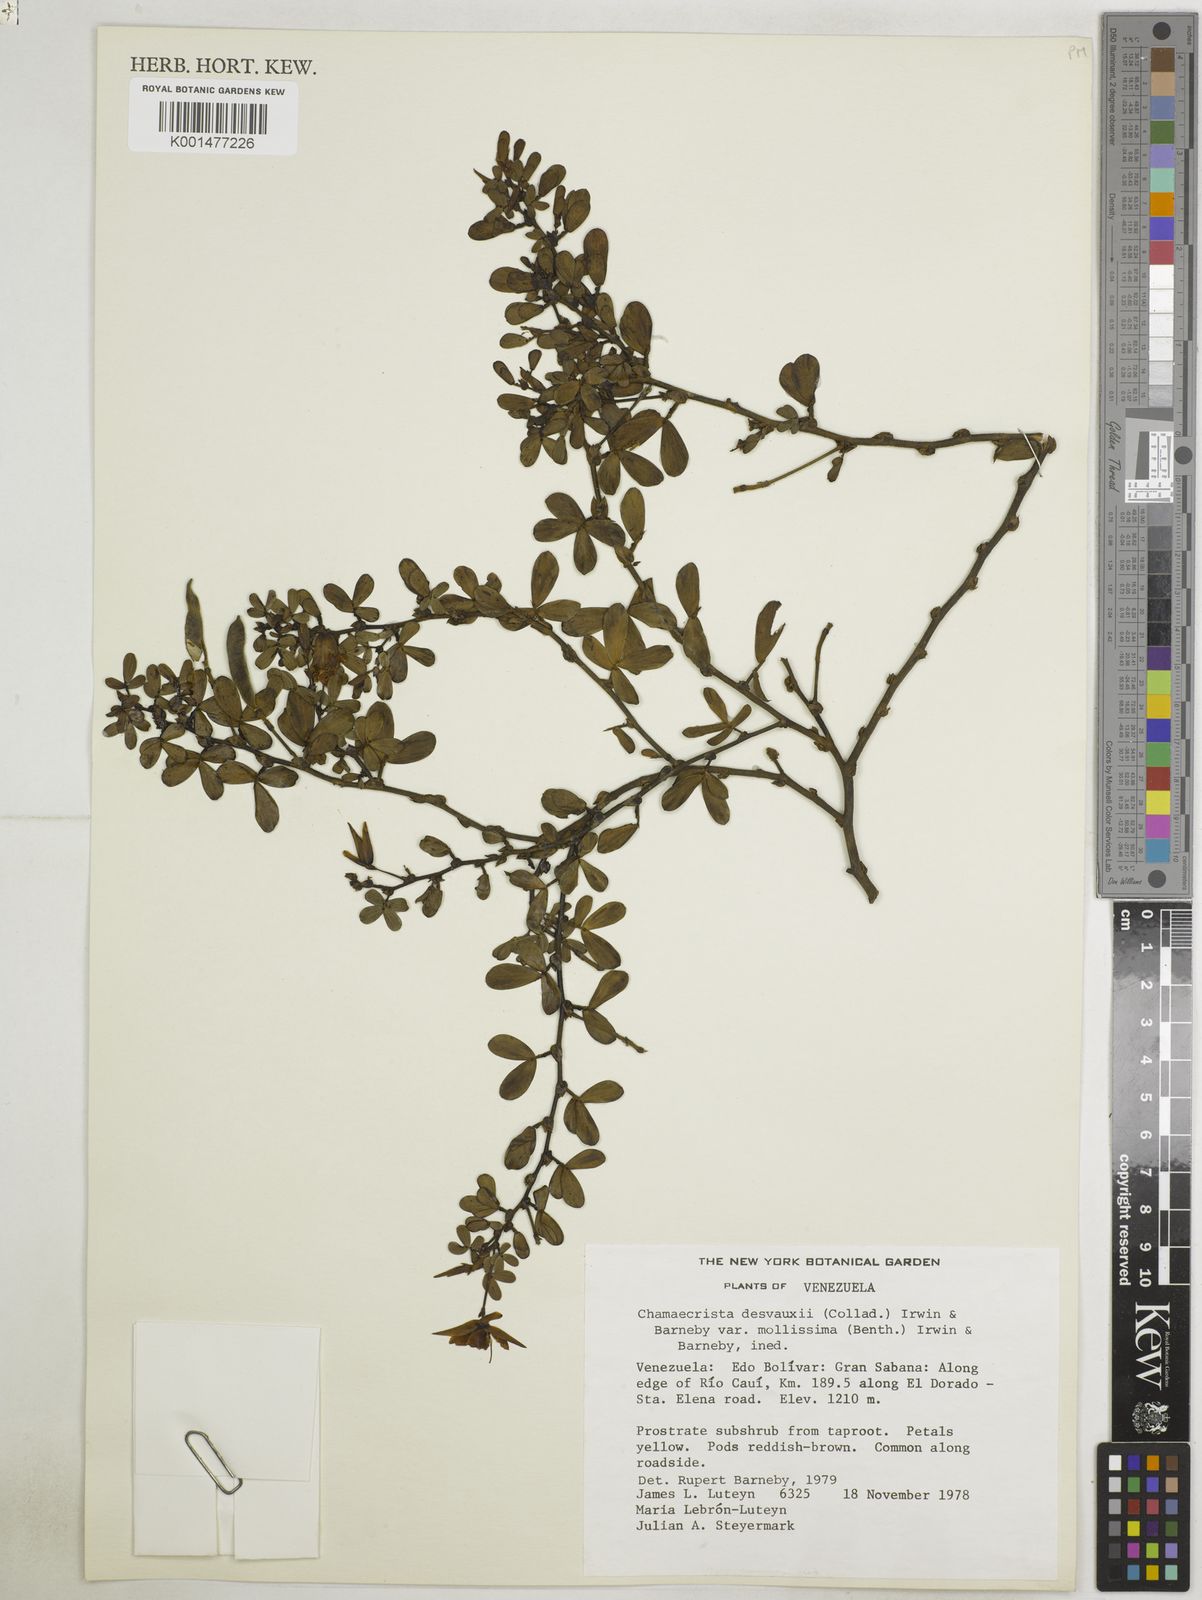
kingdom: Plantae
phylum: Tracheophyta
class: Magnoliopsida
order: Fabales
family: Fabaceae
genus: Chamaecrista
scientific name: Chamaecrista desvauxii
